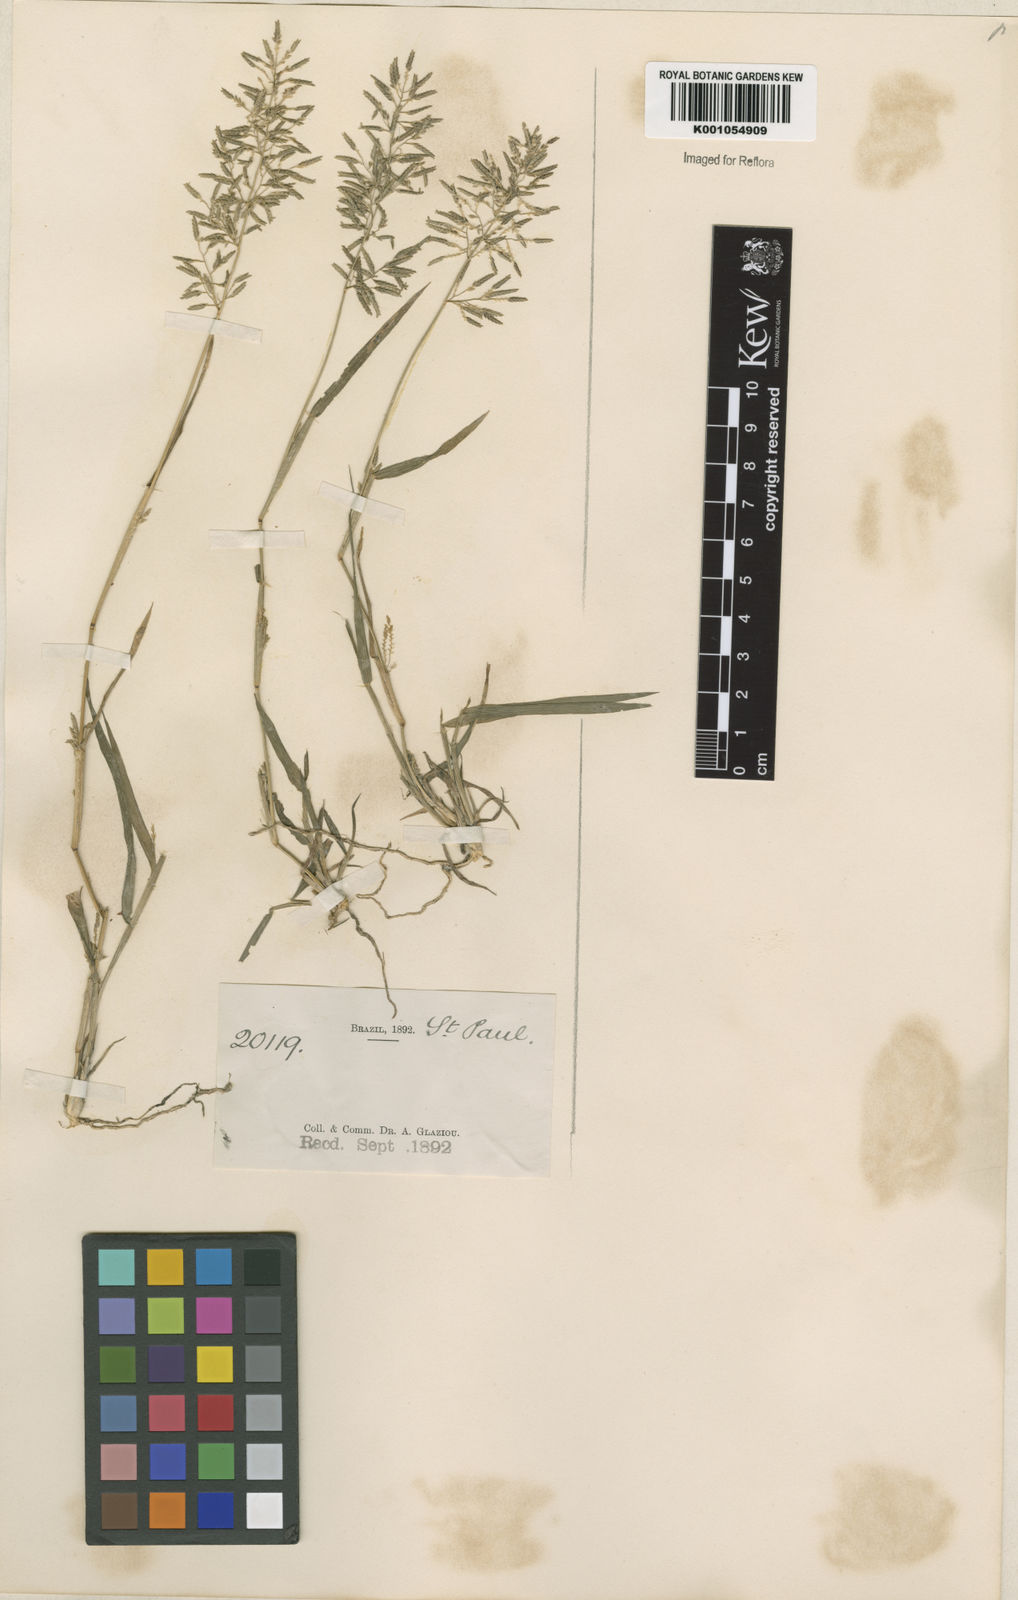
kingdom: Plantae
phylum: Tracheophyta
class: Liliopsida
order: Poales
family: Poaceae
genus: Eragrostis
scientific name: Eragrostis articulata
